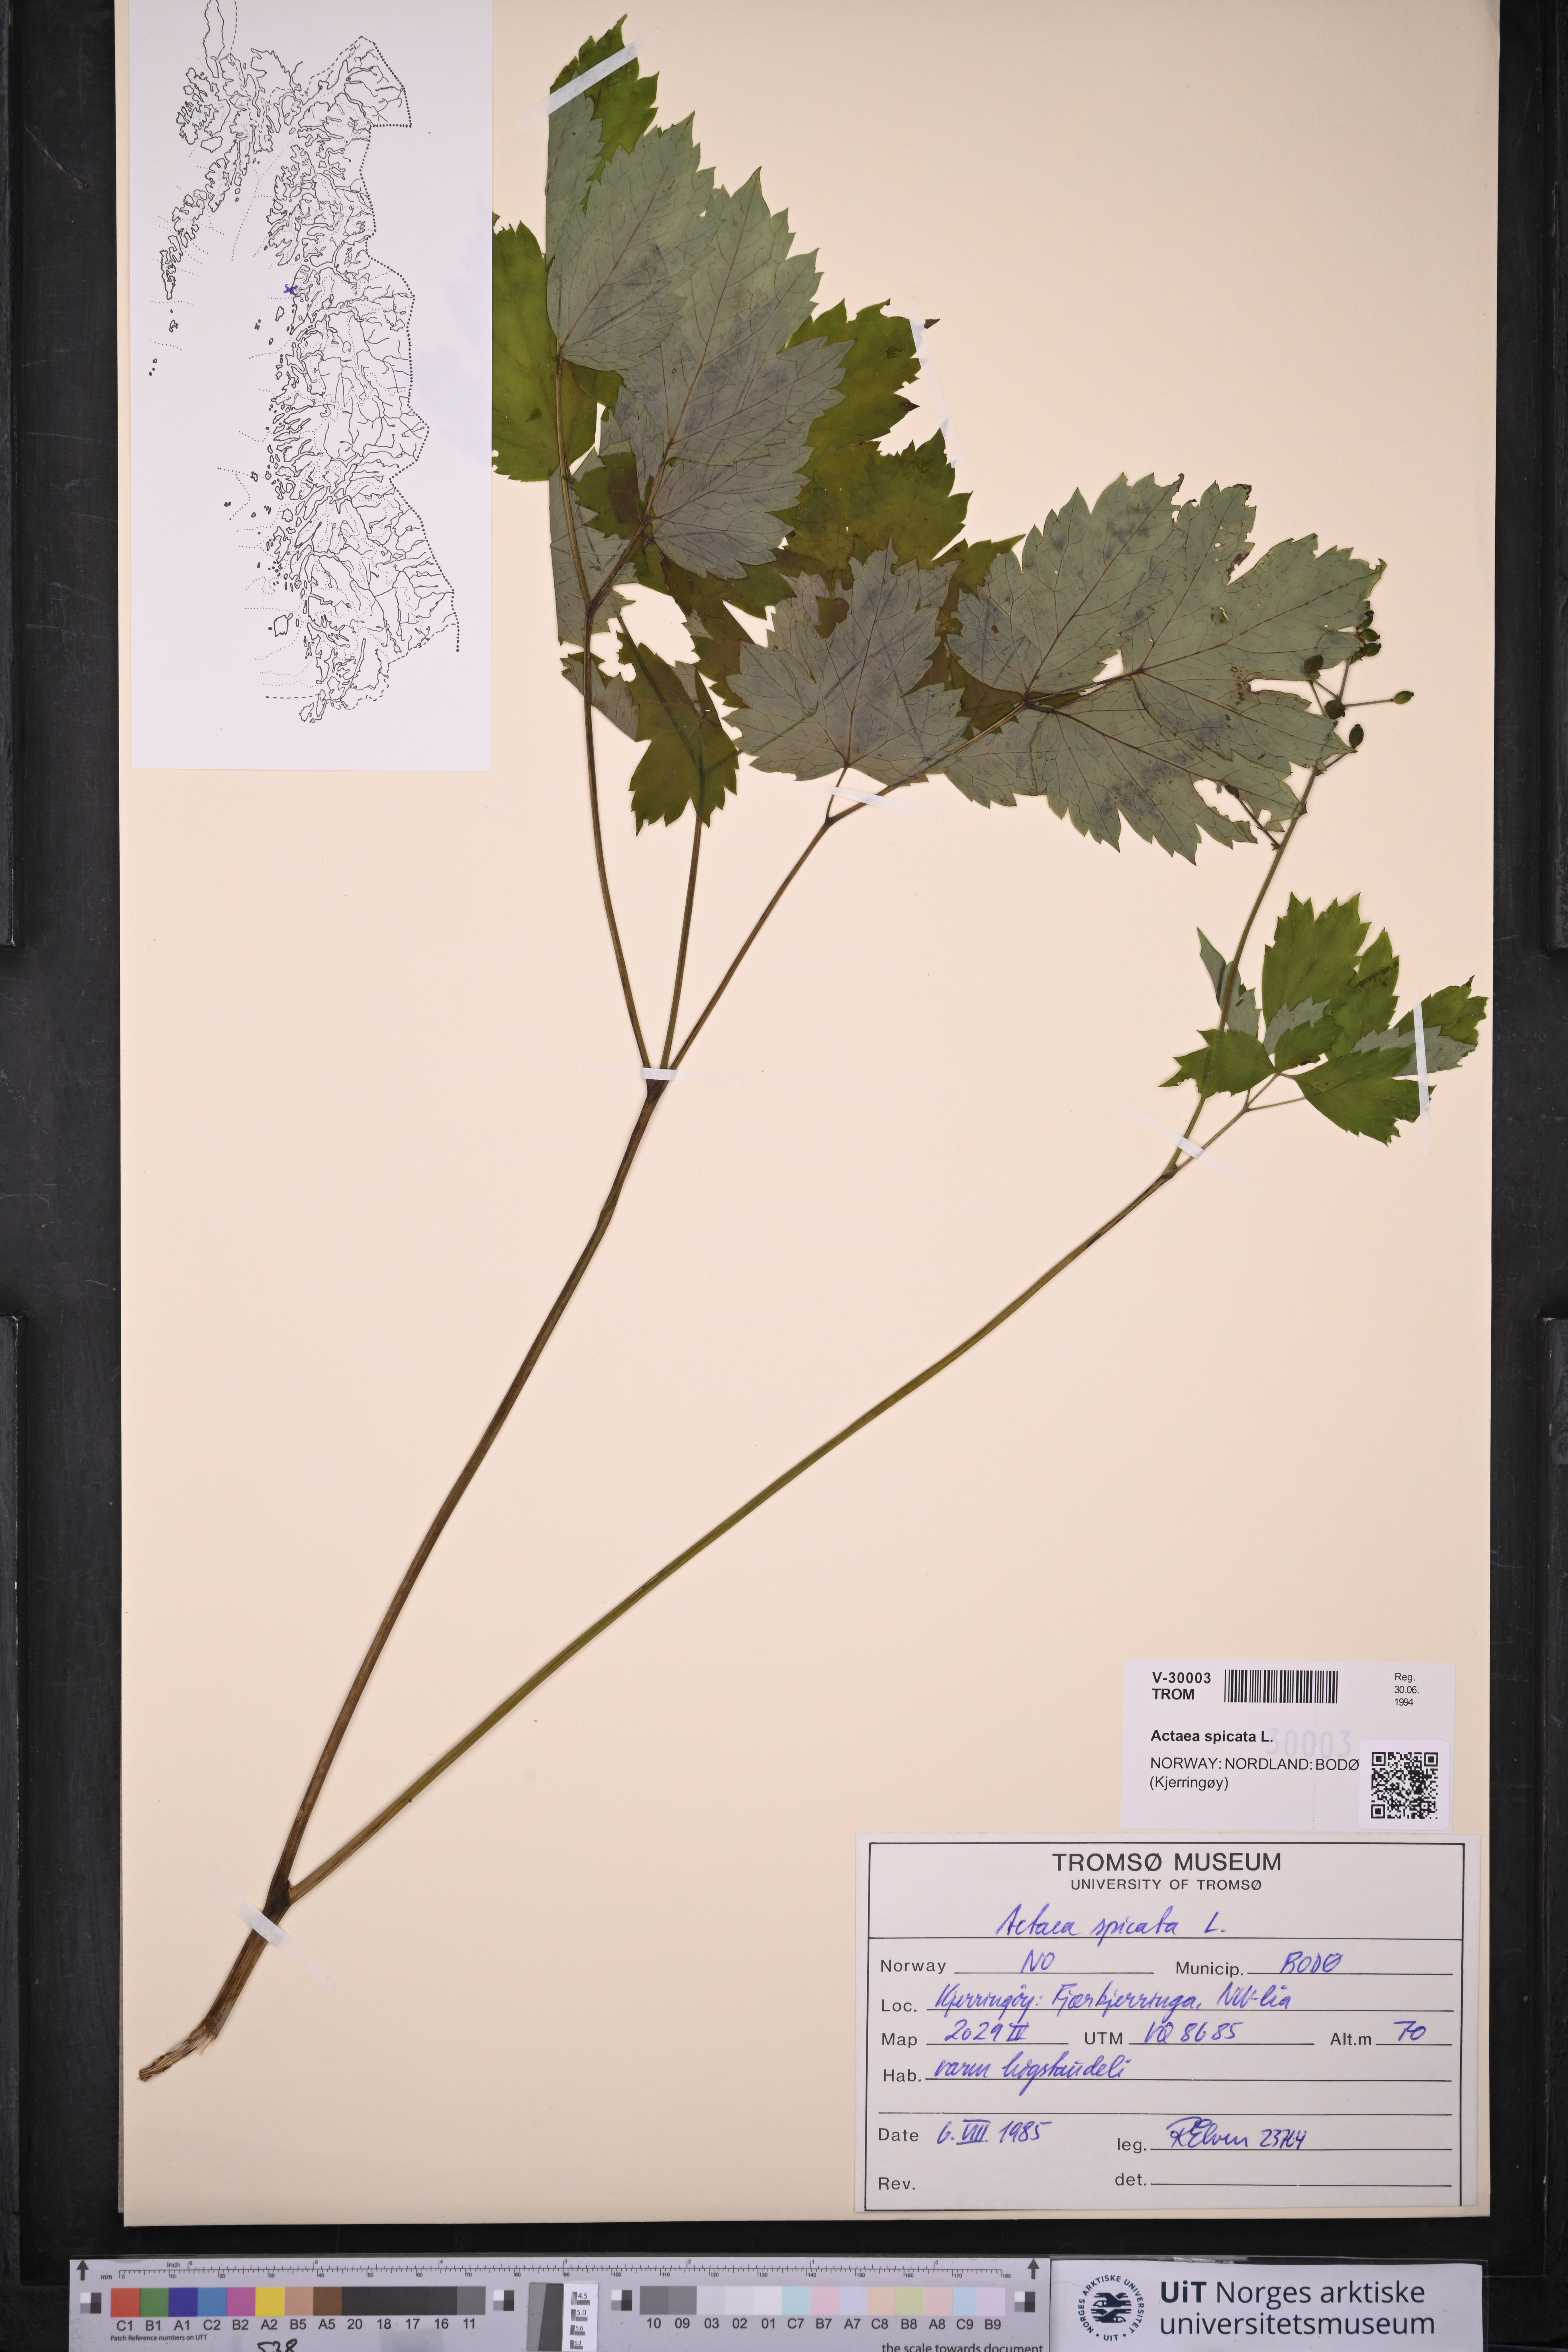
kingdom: Plantae
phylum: Tracheophyta
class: Magnoliopsida
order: Ranunculales
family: Ranunculaceae
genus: Actaea
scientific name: Actaea spicata
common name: Baneberry
